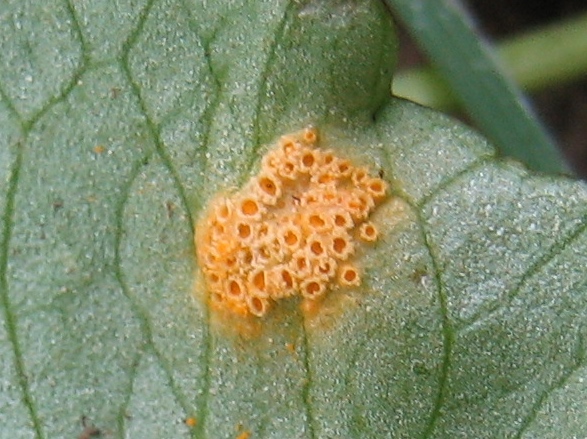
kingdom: Fungi
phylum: Basidiomycota
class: Pucciniomycetes
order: Pucciniales
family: Pucciniaceae
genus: Uromyces
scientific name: Uromyces dactylidis
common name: ranunkel-encellerust
